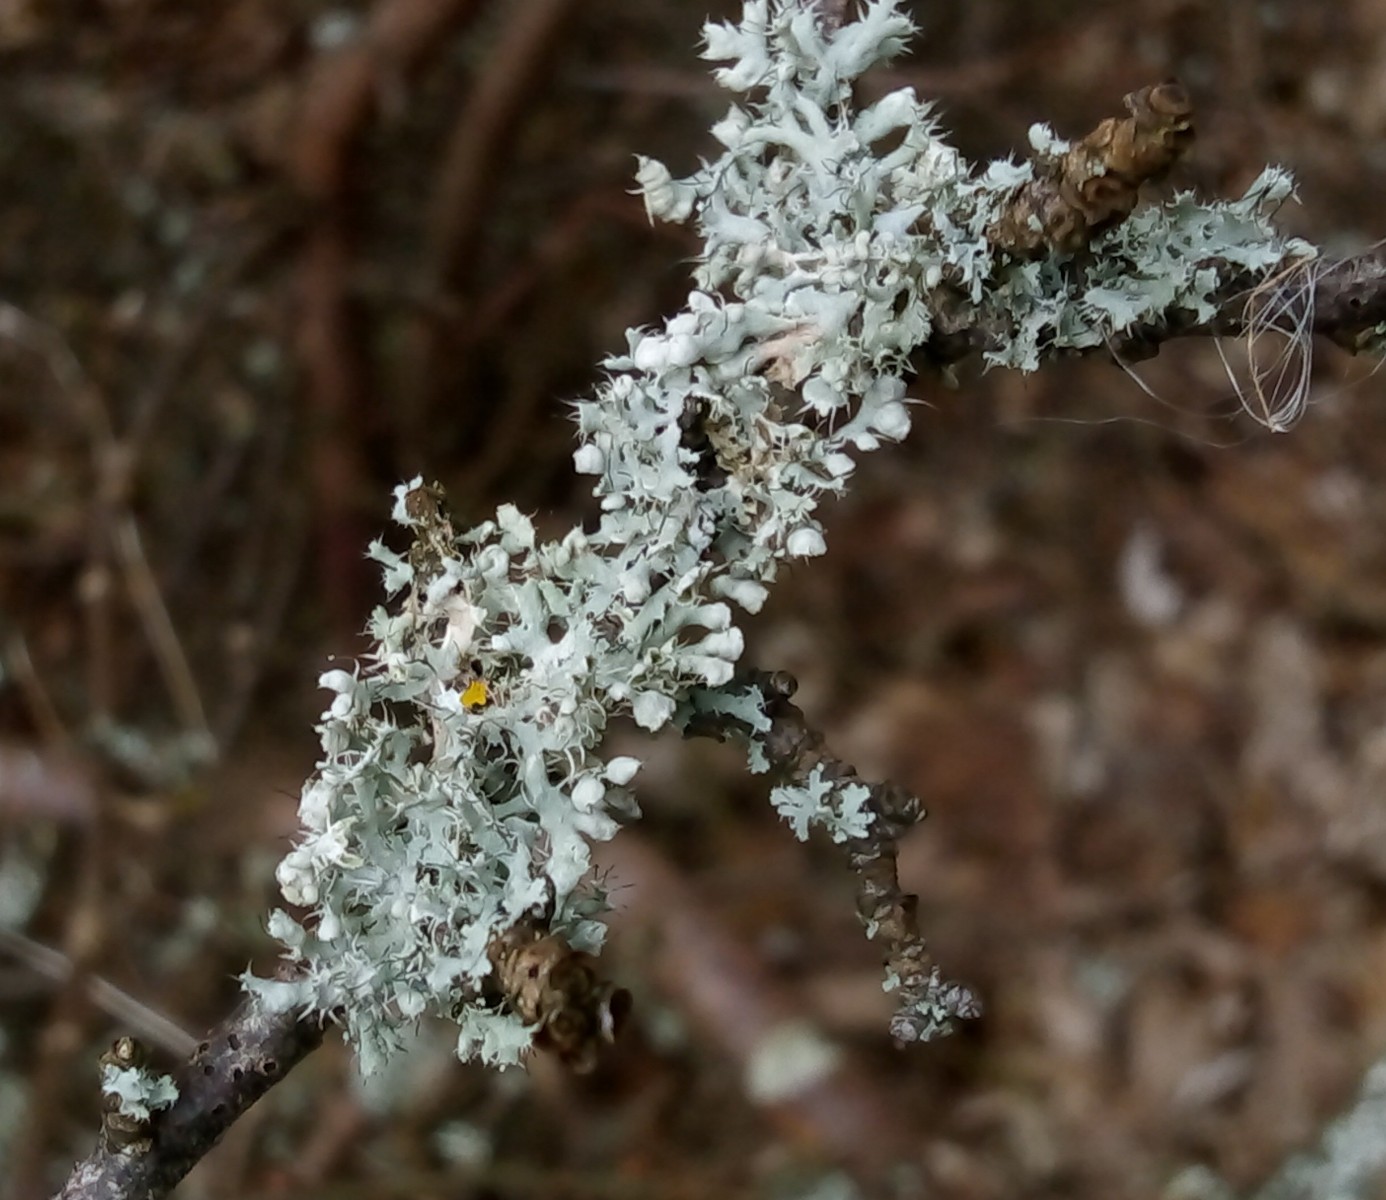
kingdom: Fungi
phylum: Ascomycota
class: Lecanoromycetes
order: Caliciales
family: Physciaceae
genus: Physcia
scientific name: Physcia adscendens
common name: hætte-rosetlav
